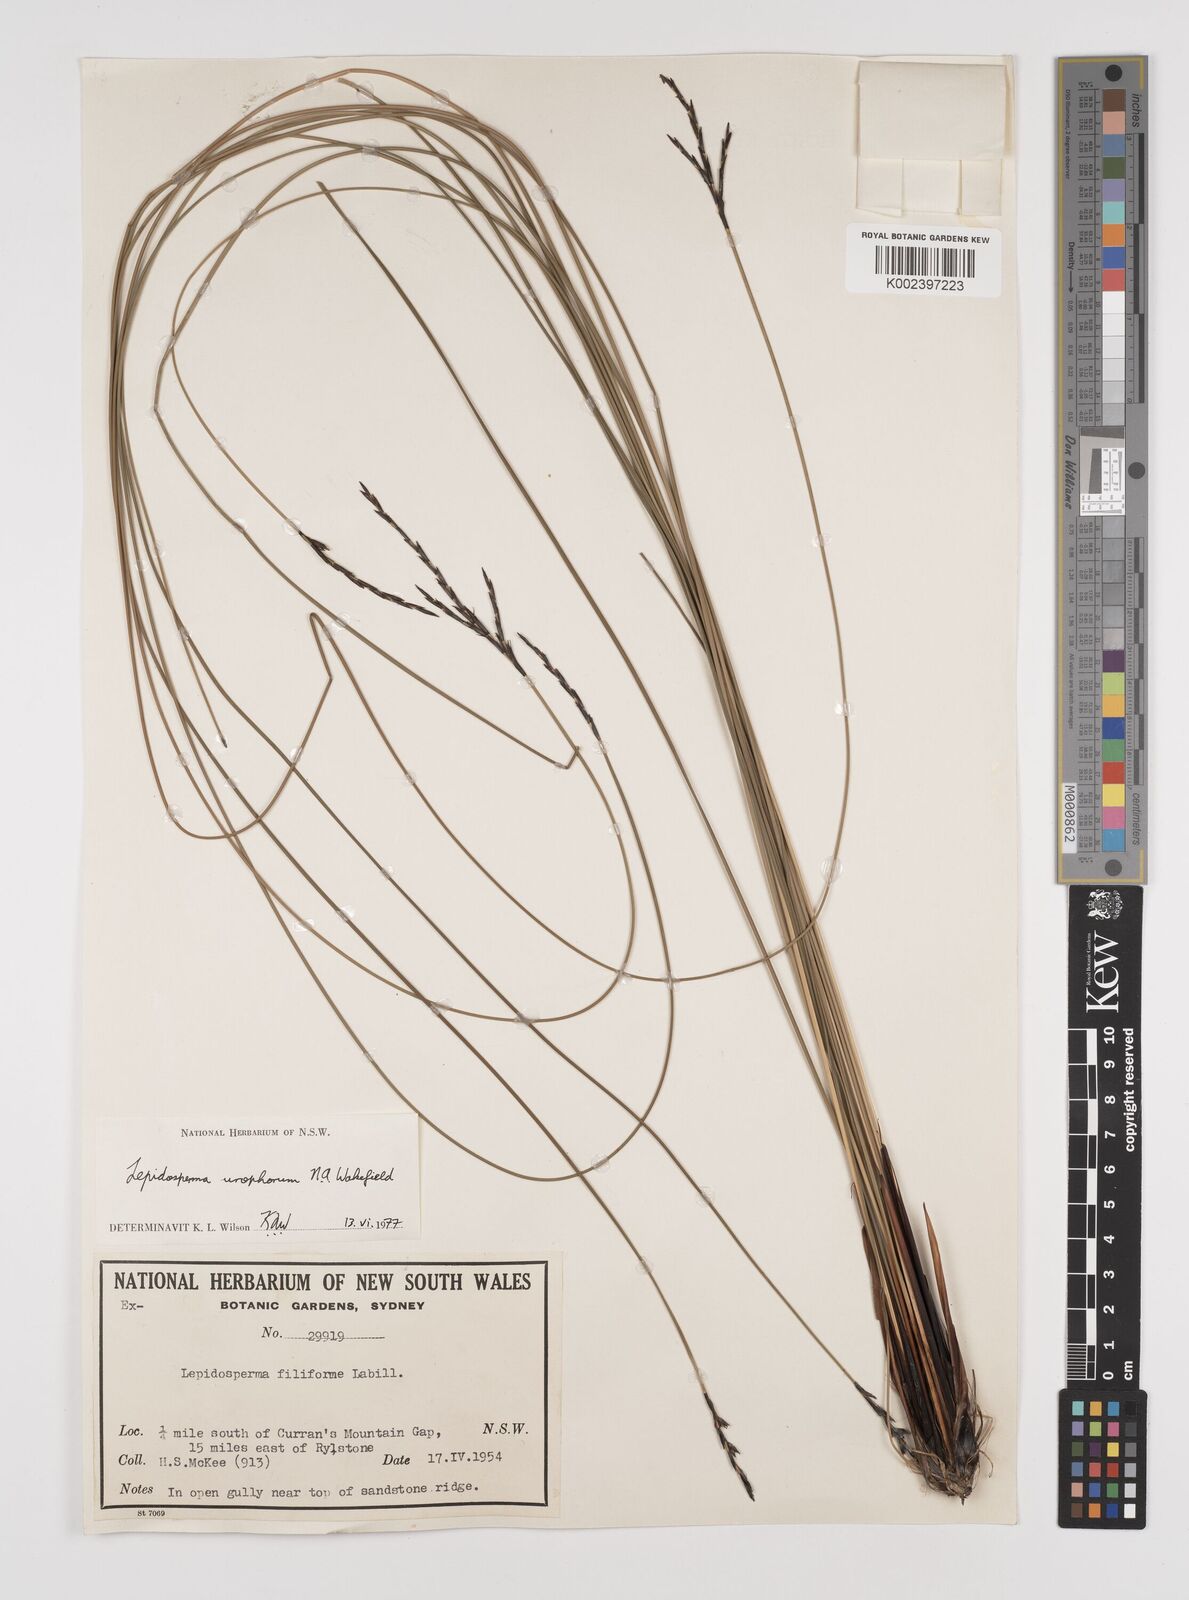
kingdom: Plantae
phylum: Tracheophyta
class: Liliopsida
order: Poales
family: Cyperaceae
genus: Lepidosperma
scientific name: Lepidosperma urophorum
